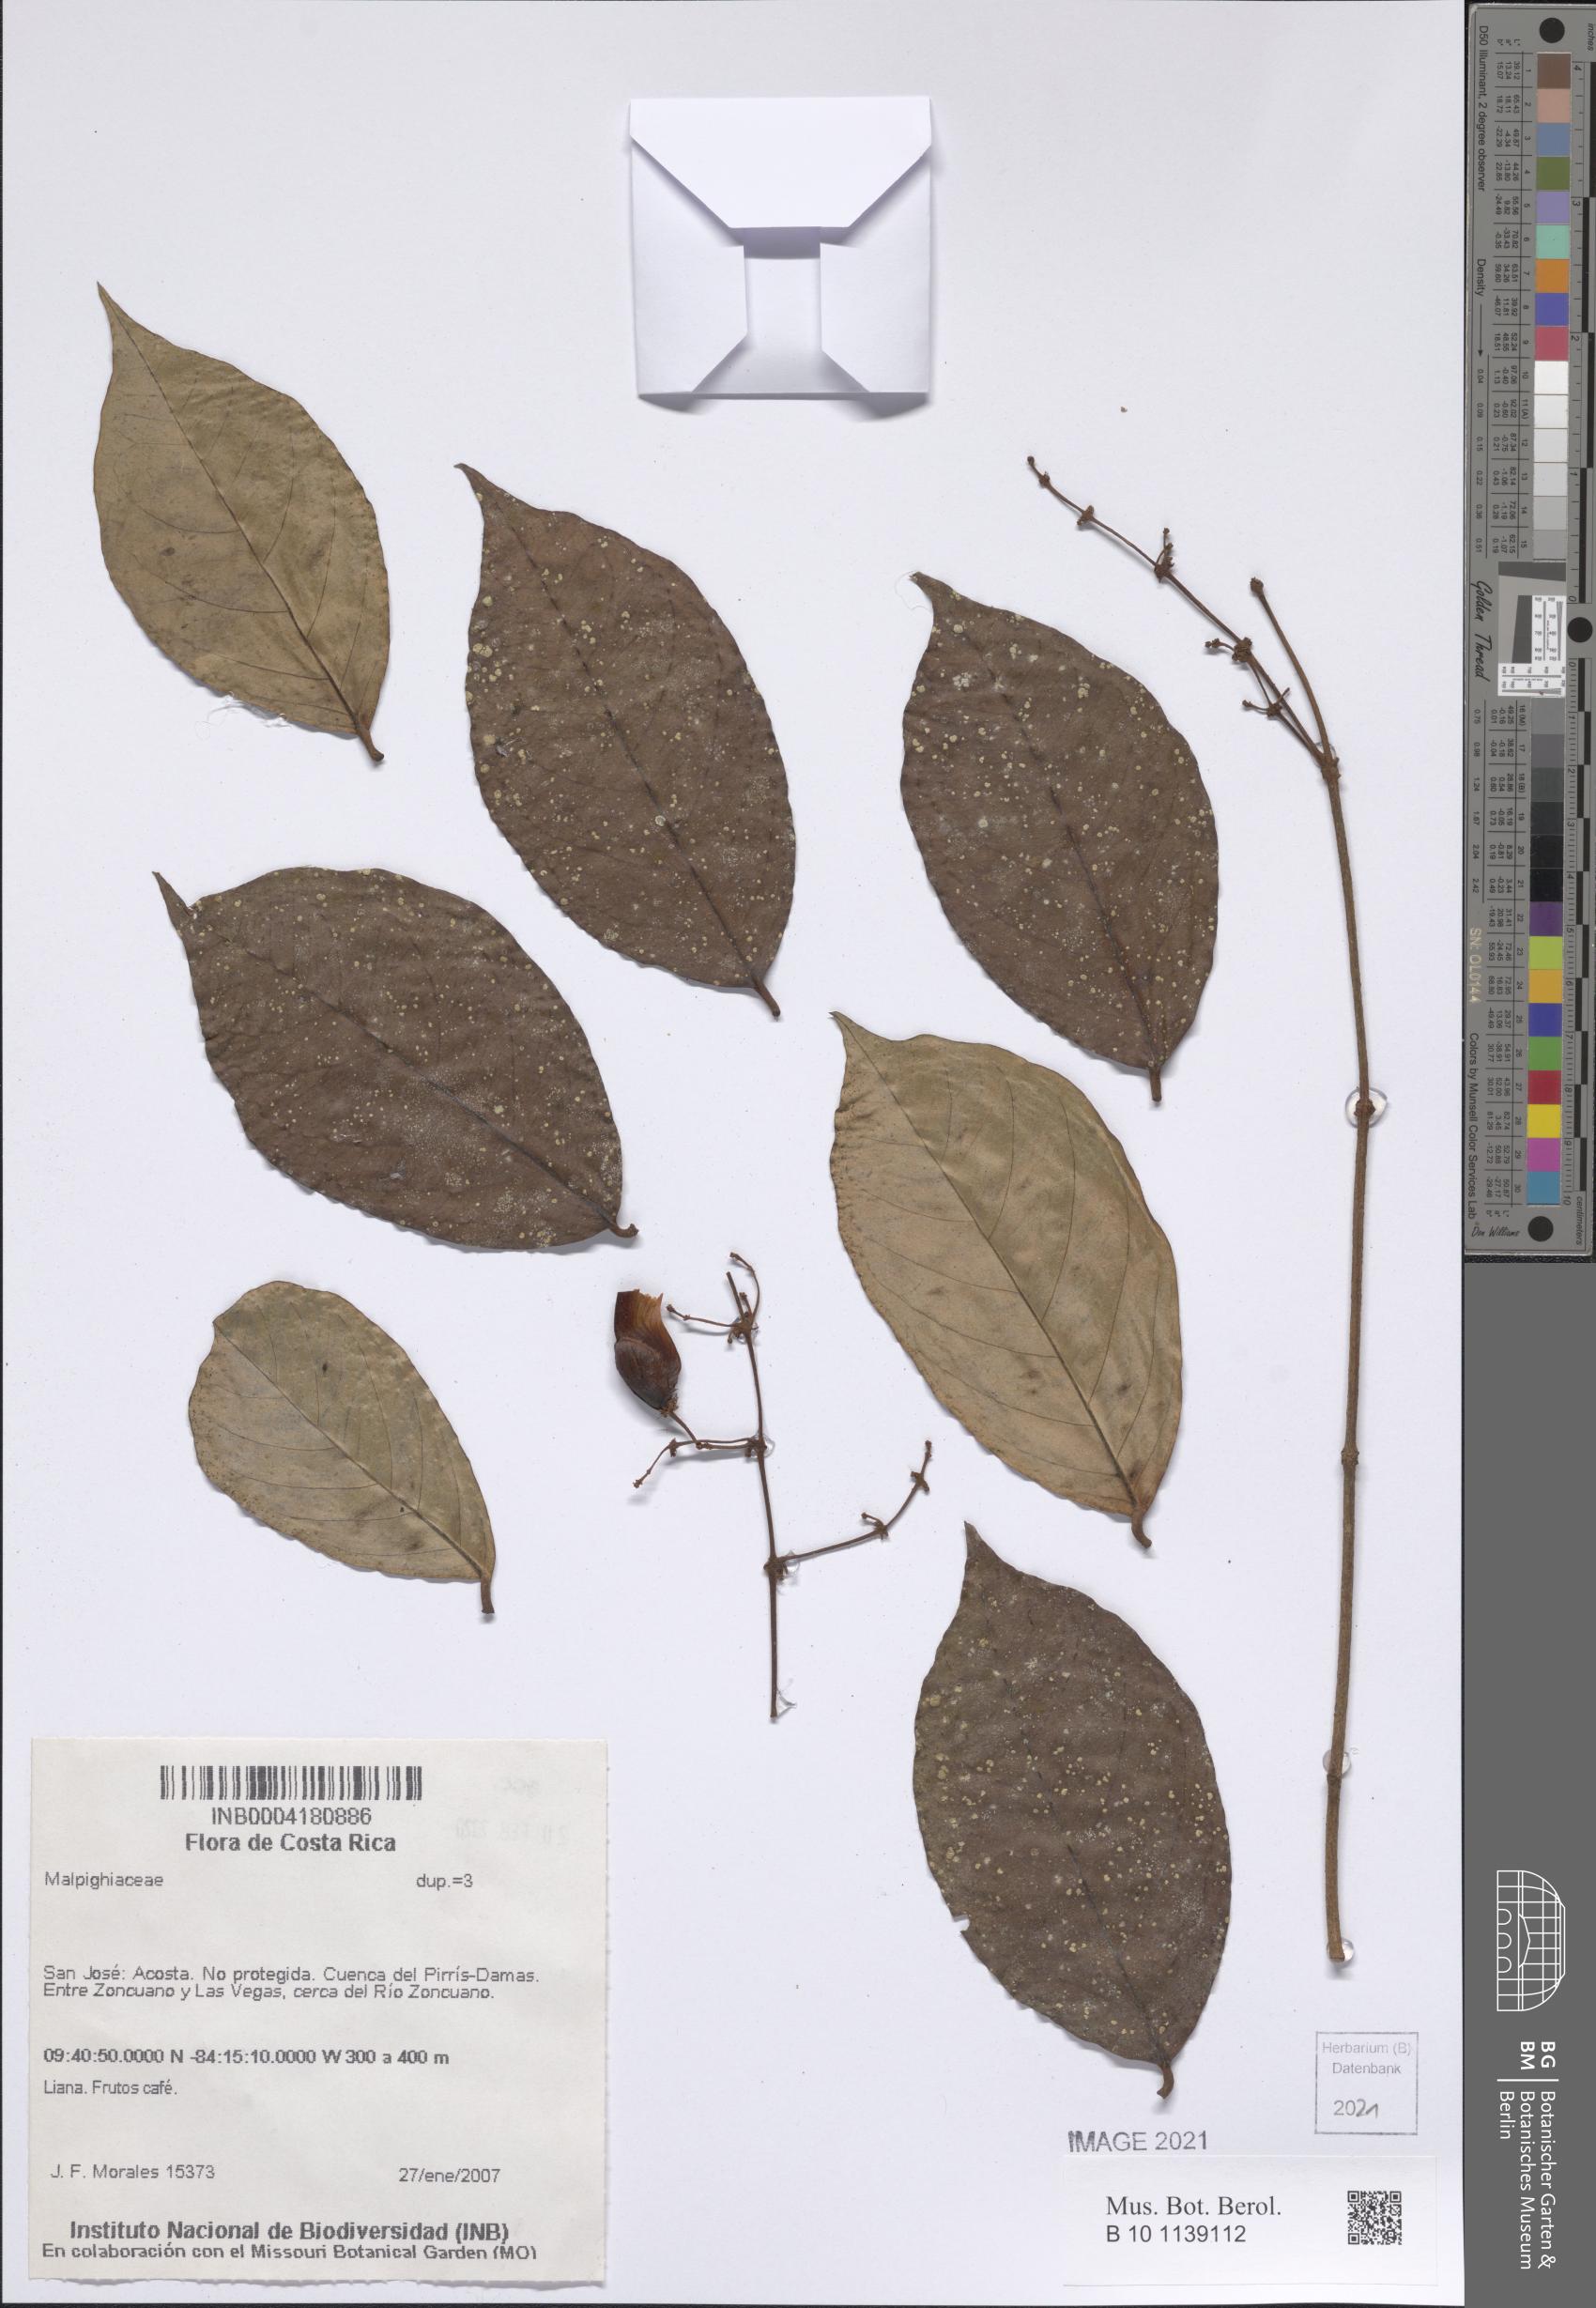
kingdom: Plantae
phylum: Tracheophyta
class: Magnoliopsida
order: Malpighiales
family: Malpighiaceae
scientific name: Malpighiaceae
